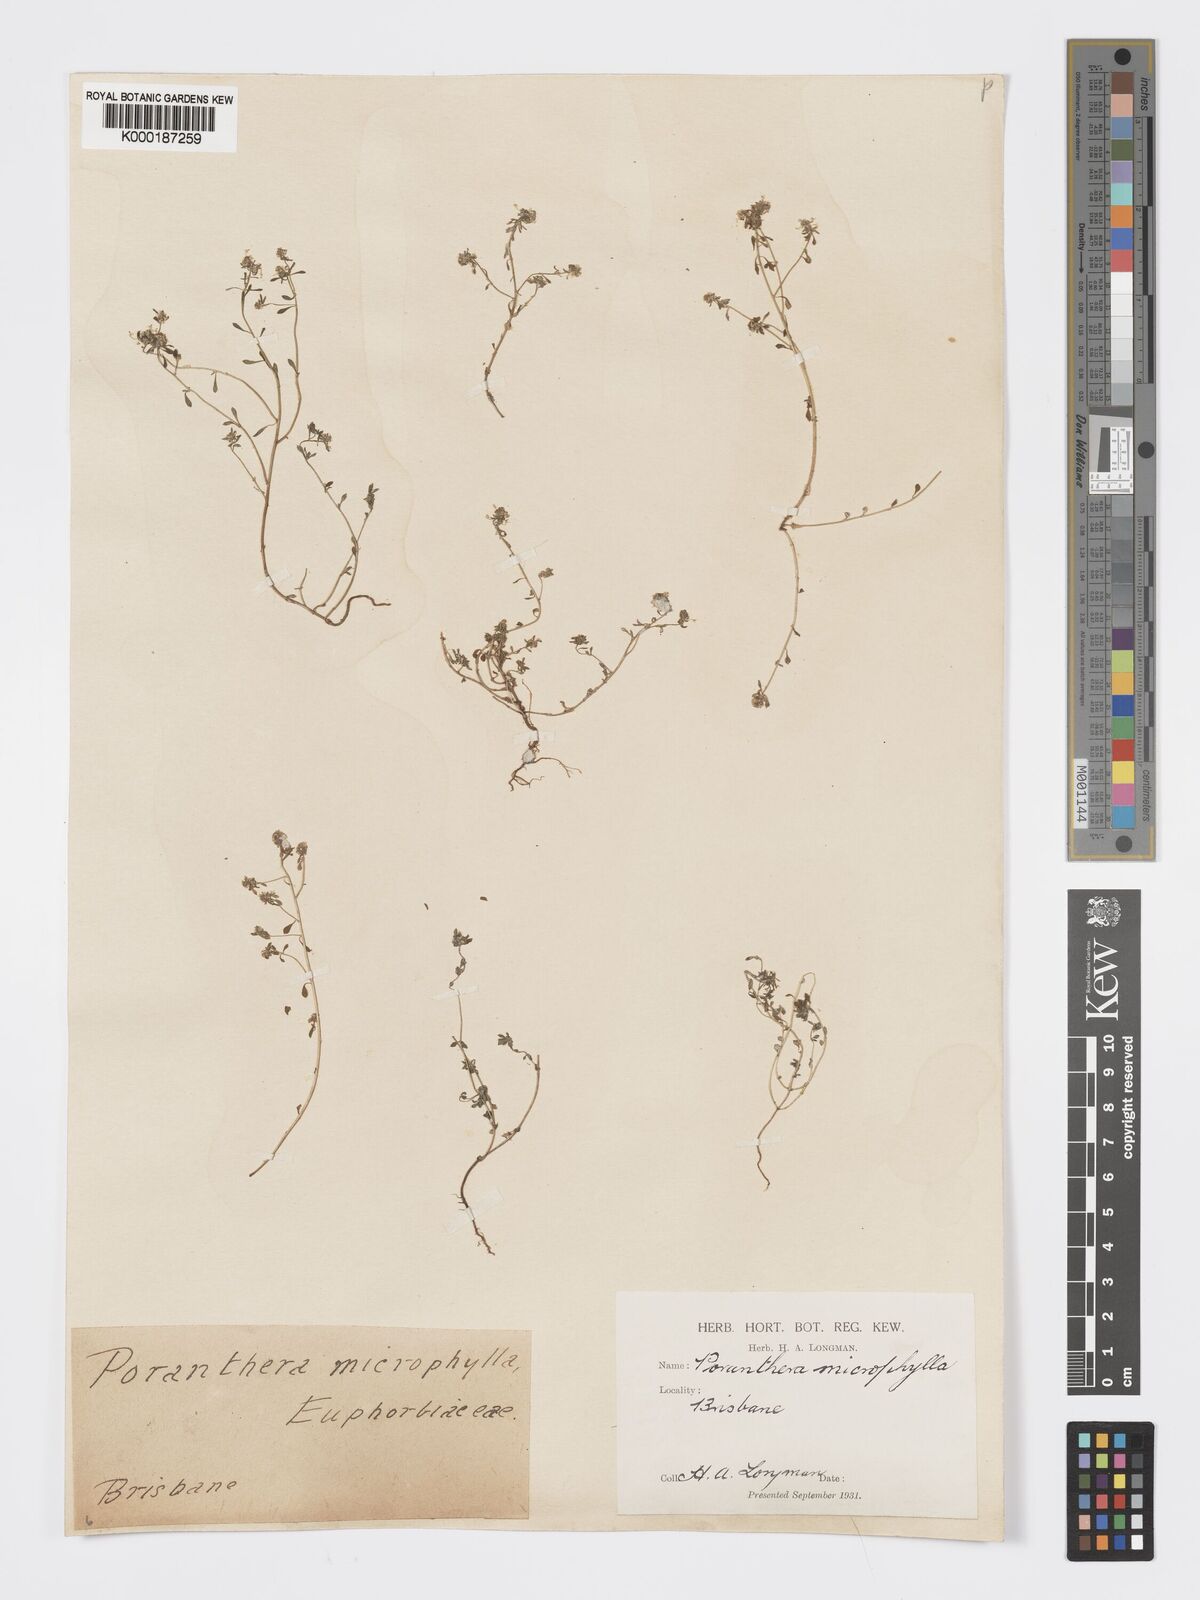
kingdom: Plantae
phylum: Tracheophyta
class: Magnoliopsida
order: Malpighiales
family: Phyllanthaceae
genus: Poranthera
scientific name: Poranthera microphylla
